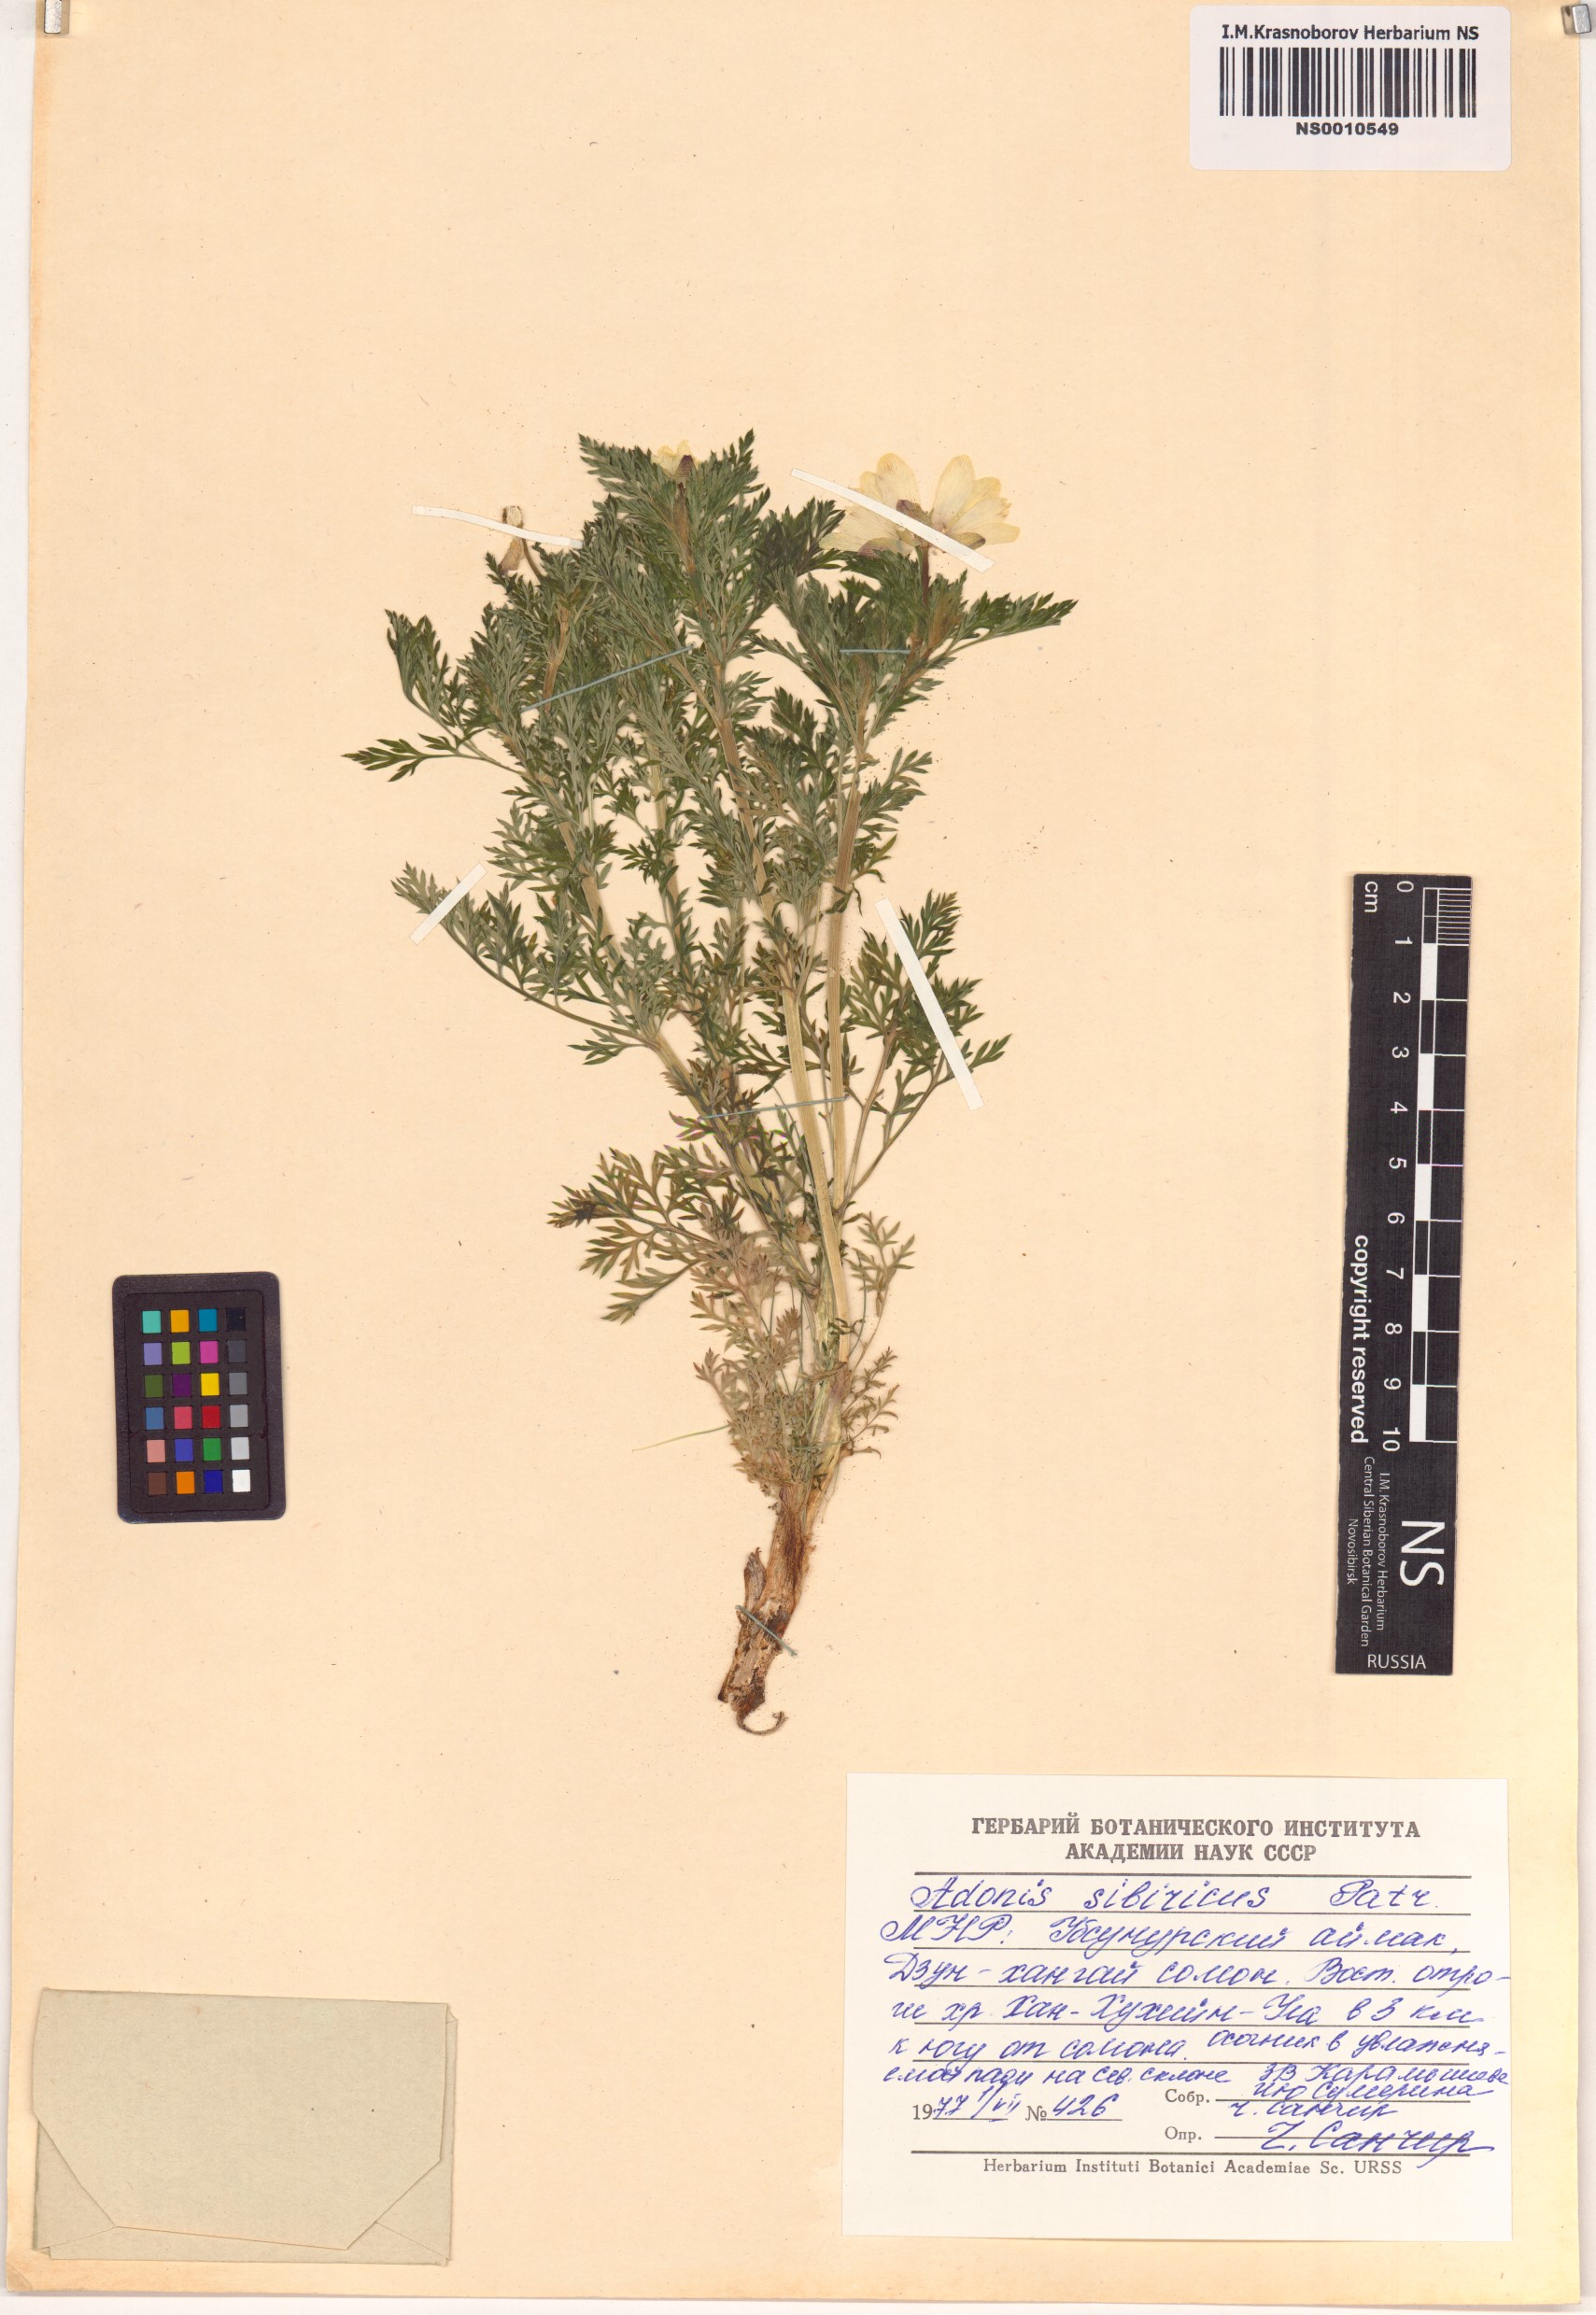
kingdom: Plantae
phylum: Tracheophyta
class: Magnoliopsida
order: Ranunculales
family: Ranunculaceae
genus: Adonis
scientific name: Adonis sibirica
